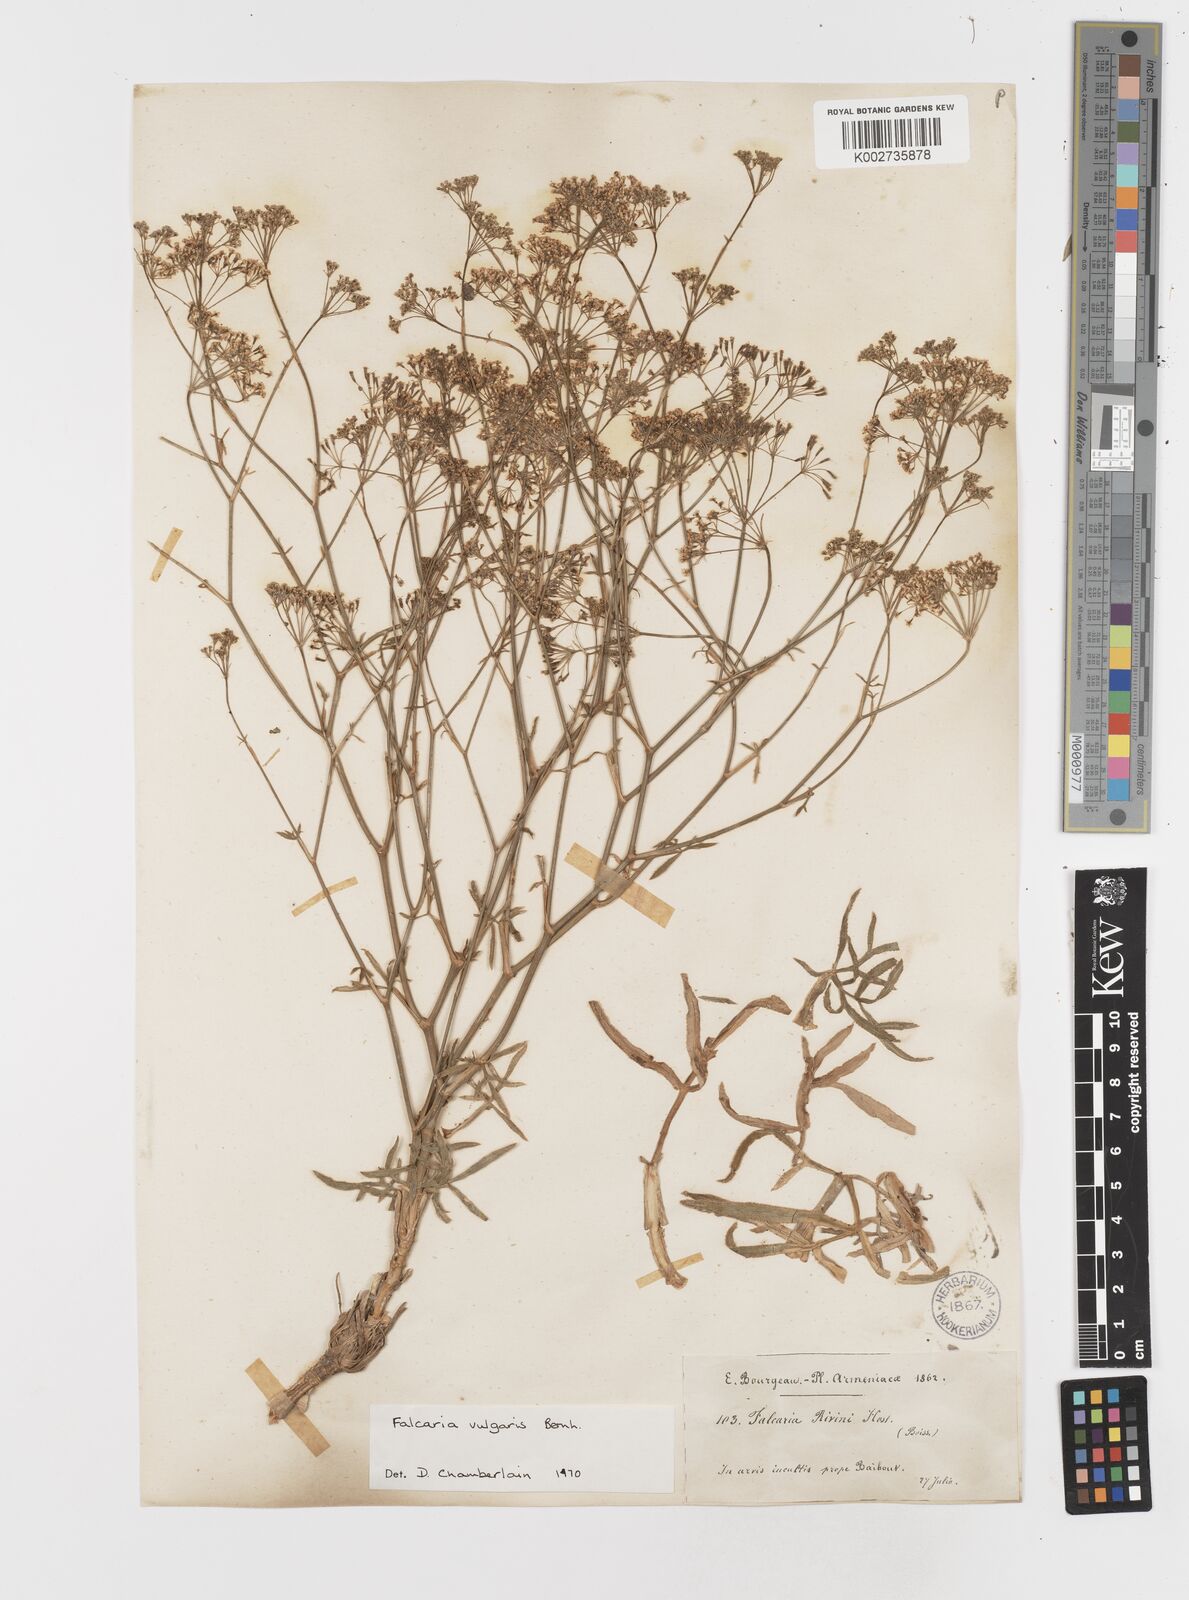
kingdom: Plantae
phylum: Tracheophyta
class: Magnoliopsida
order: Apiales
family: Apiaceae
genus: Falcaria
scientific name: Falcaria vulgaris
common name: Longleaf
